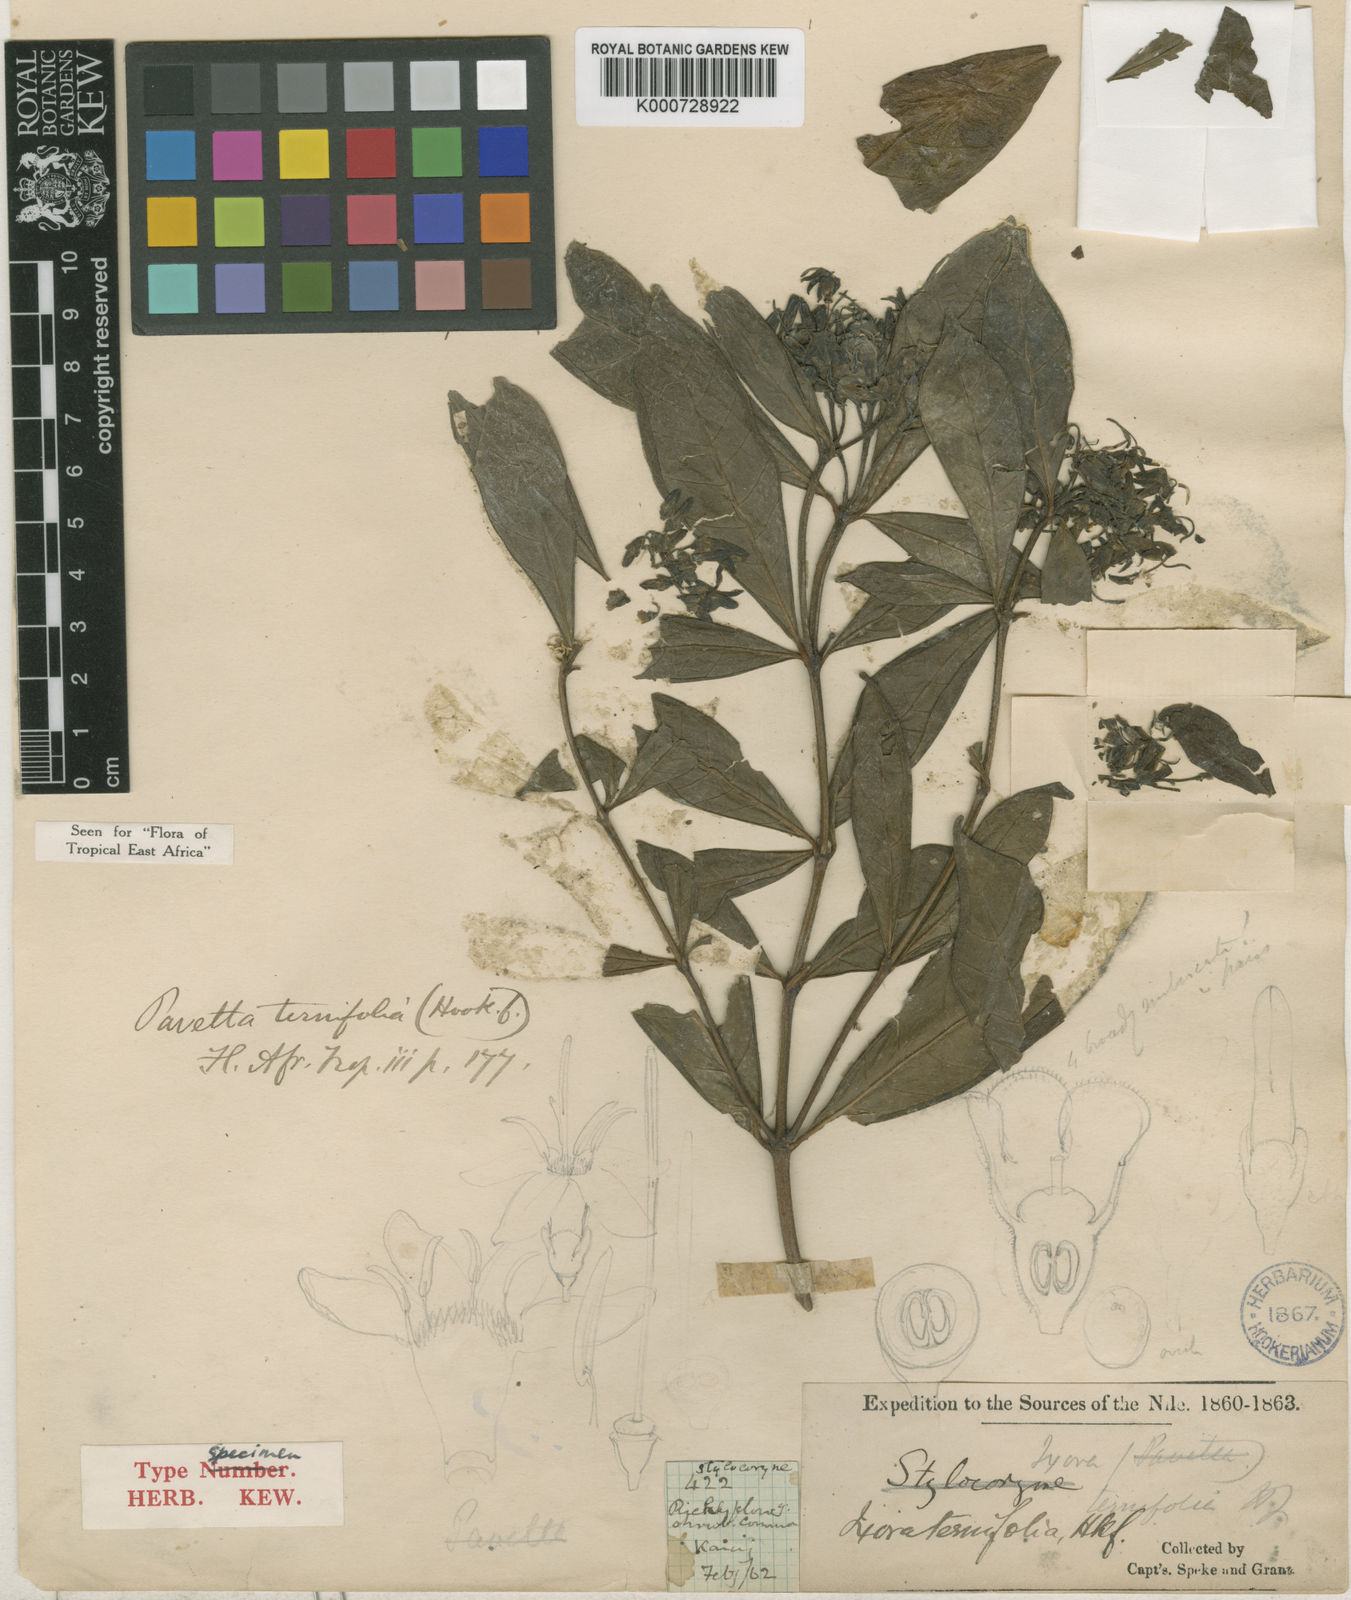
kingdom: Plantae
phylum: Tracheophyta
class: Magnoliopsida
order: Gentianales
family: Rubiaceae
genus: Pavetta
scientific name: Pavetta
